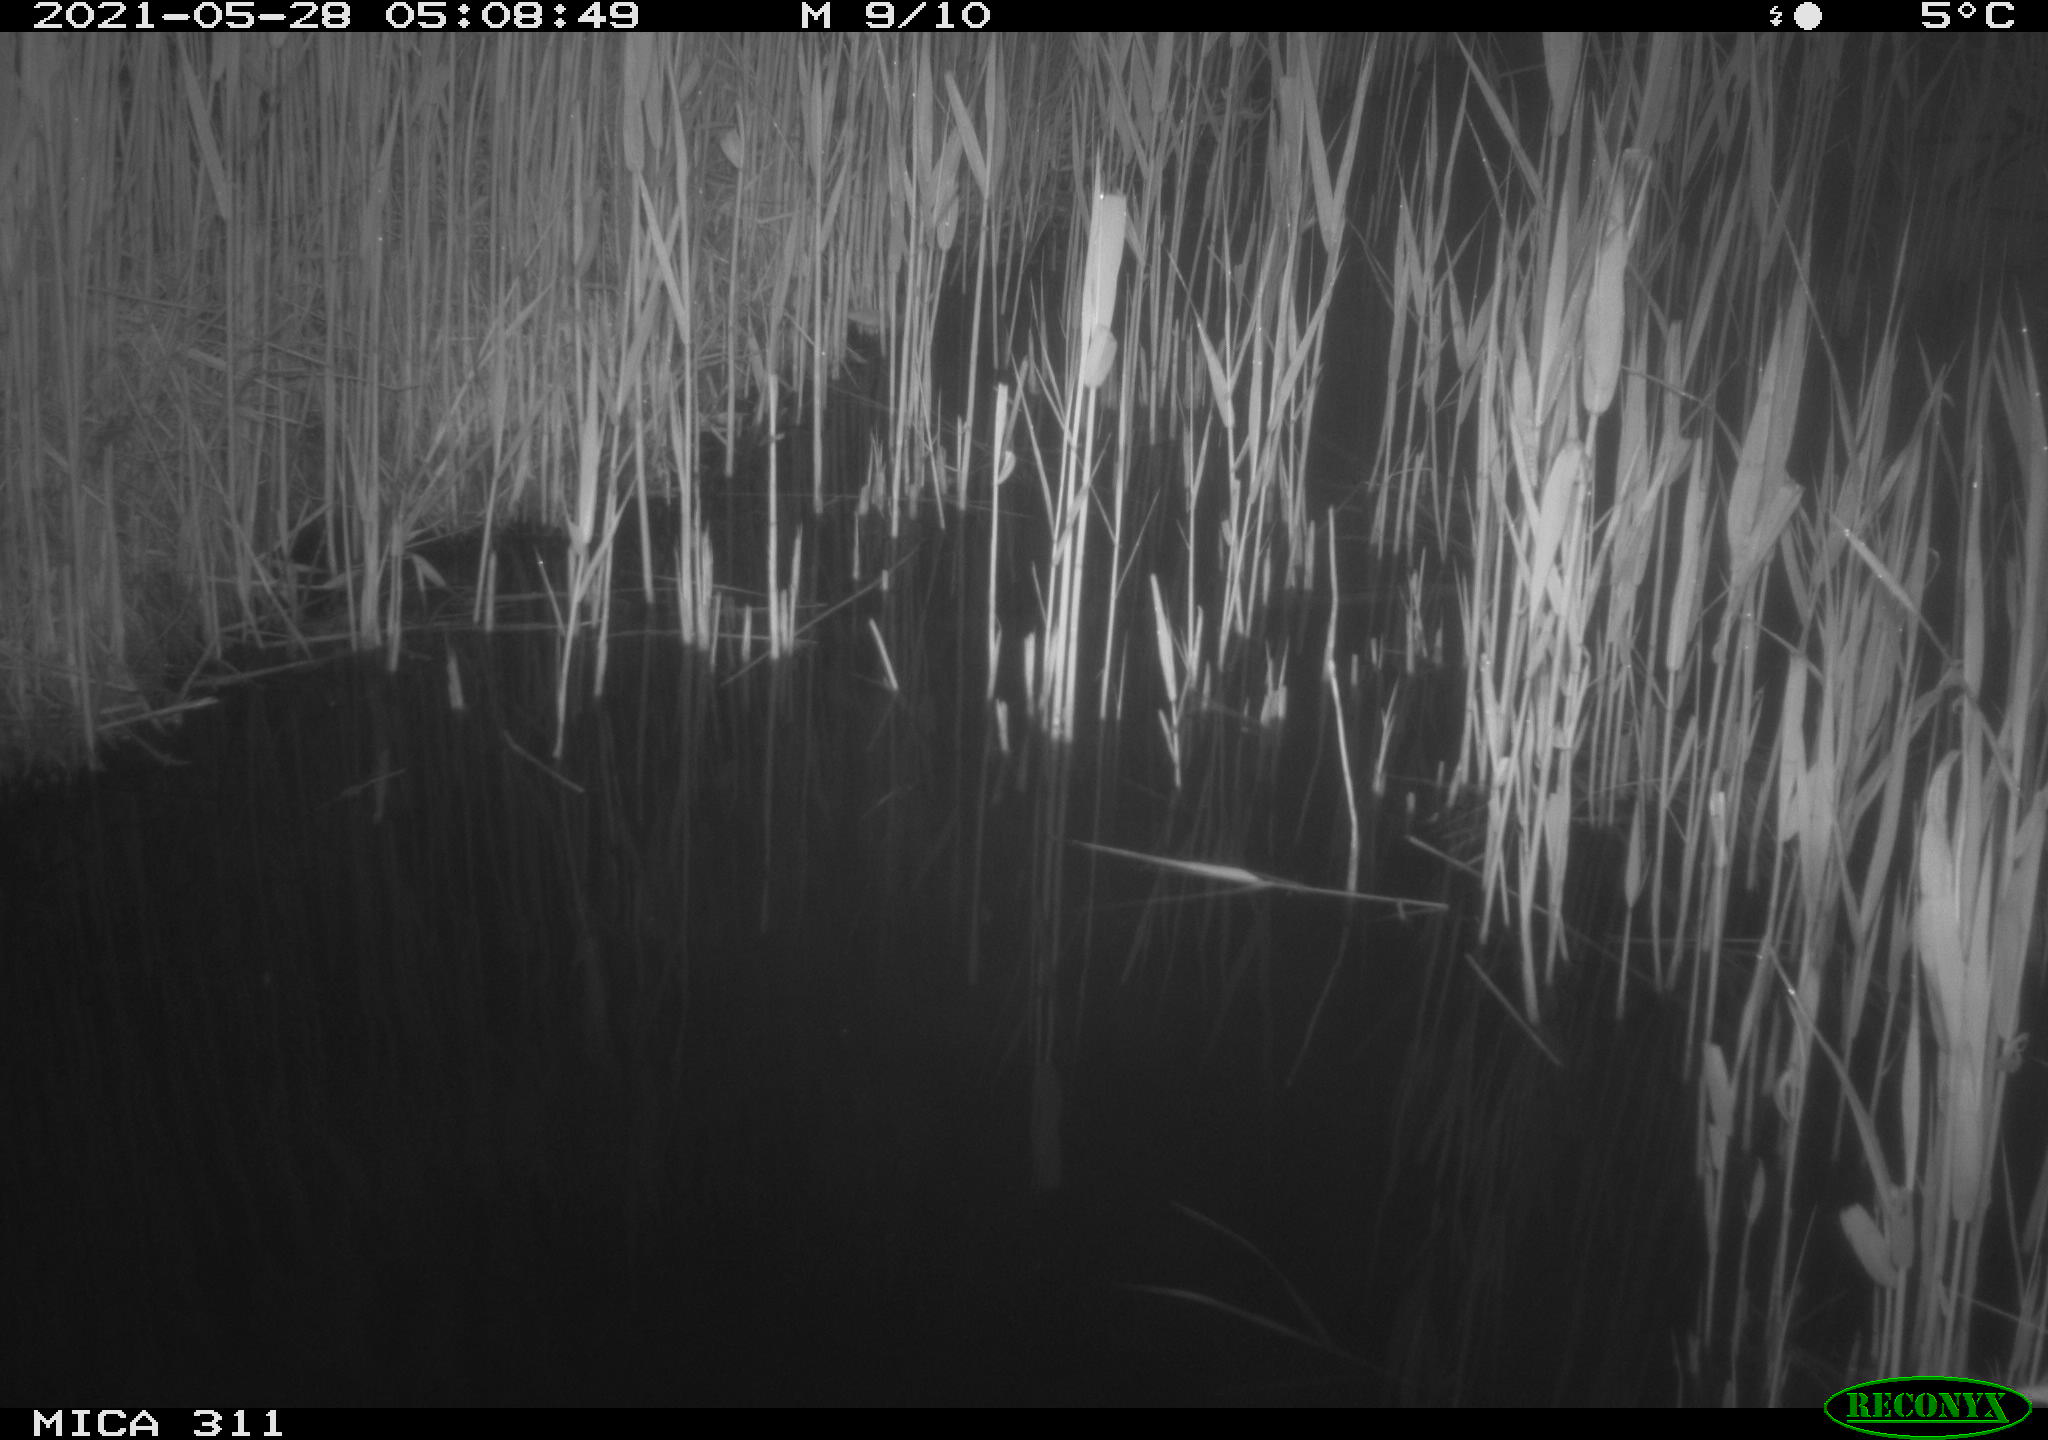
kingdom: Animalia
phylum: Chordata
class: Aves
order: Gruiformes
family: Rallidae
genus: Gallinula
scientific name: Gallinula chloropus
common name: Common moorhen
